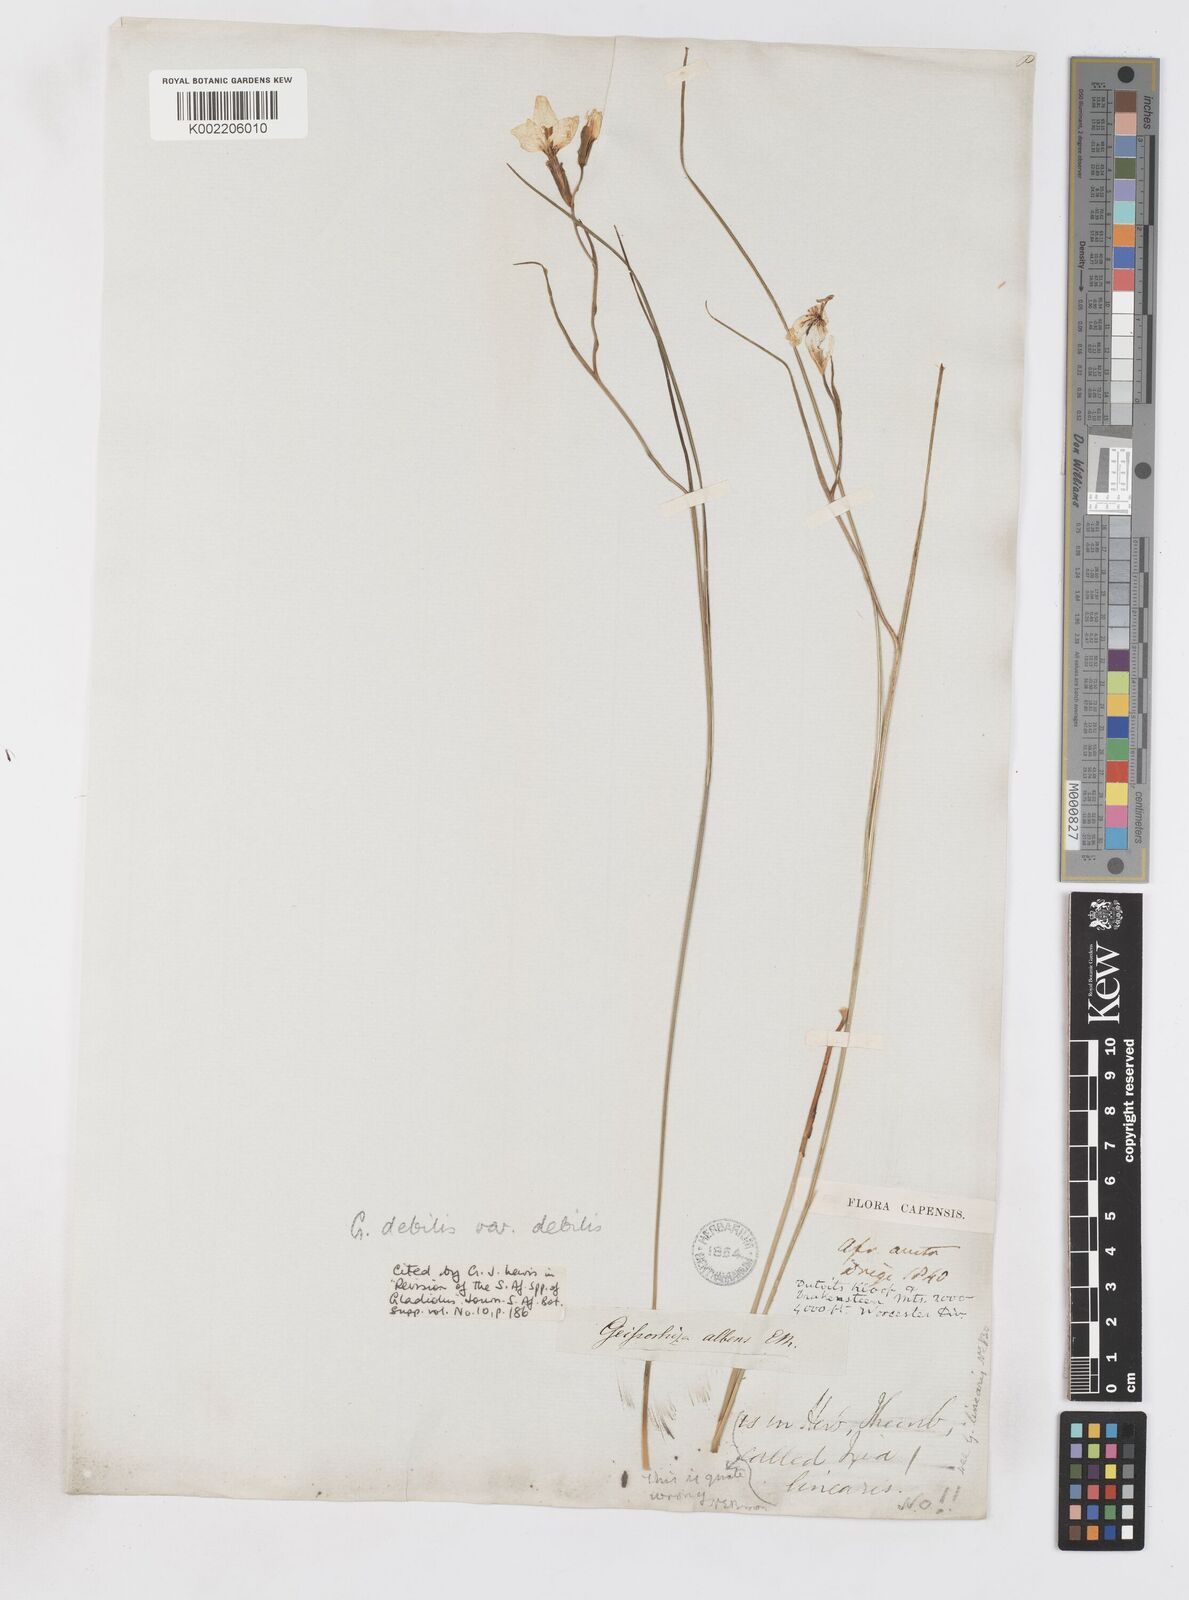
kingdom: Plantae
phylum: Tracheophyta
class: Liliopsida
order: Asparagales
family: Iridaceae
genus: Gladiolus
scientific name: Gladiolus debilis
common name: Painted-lady
